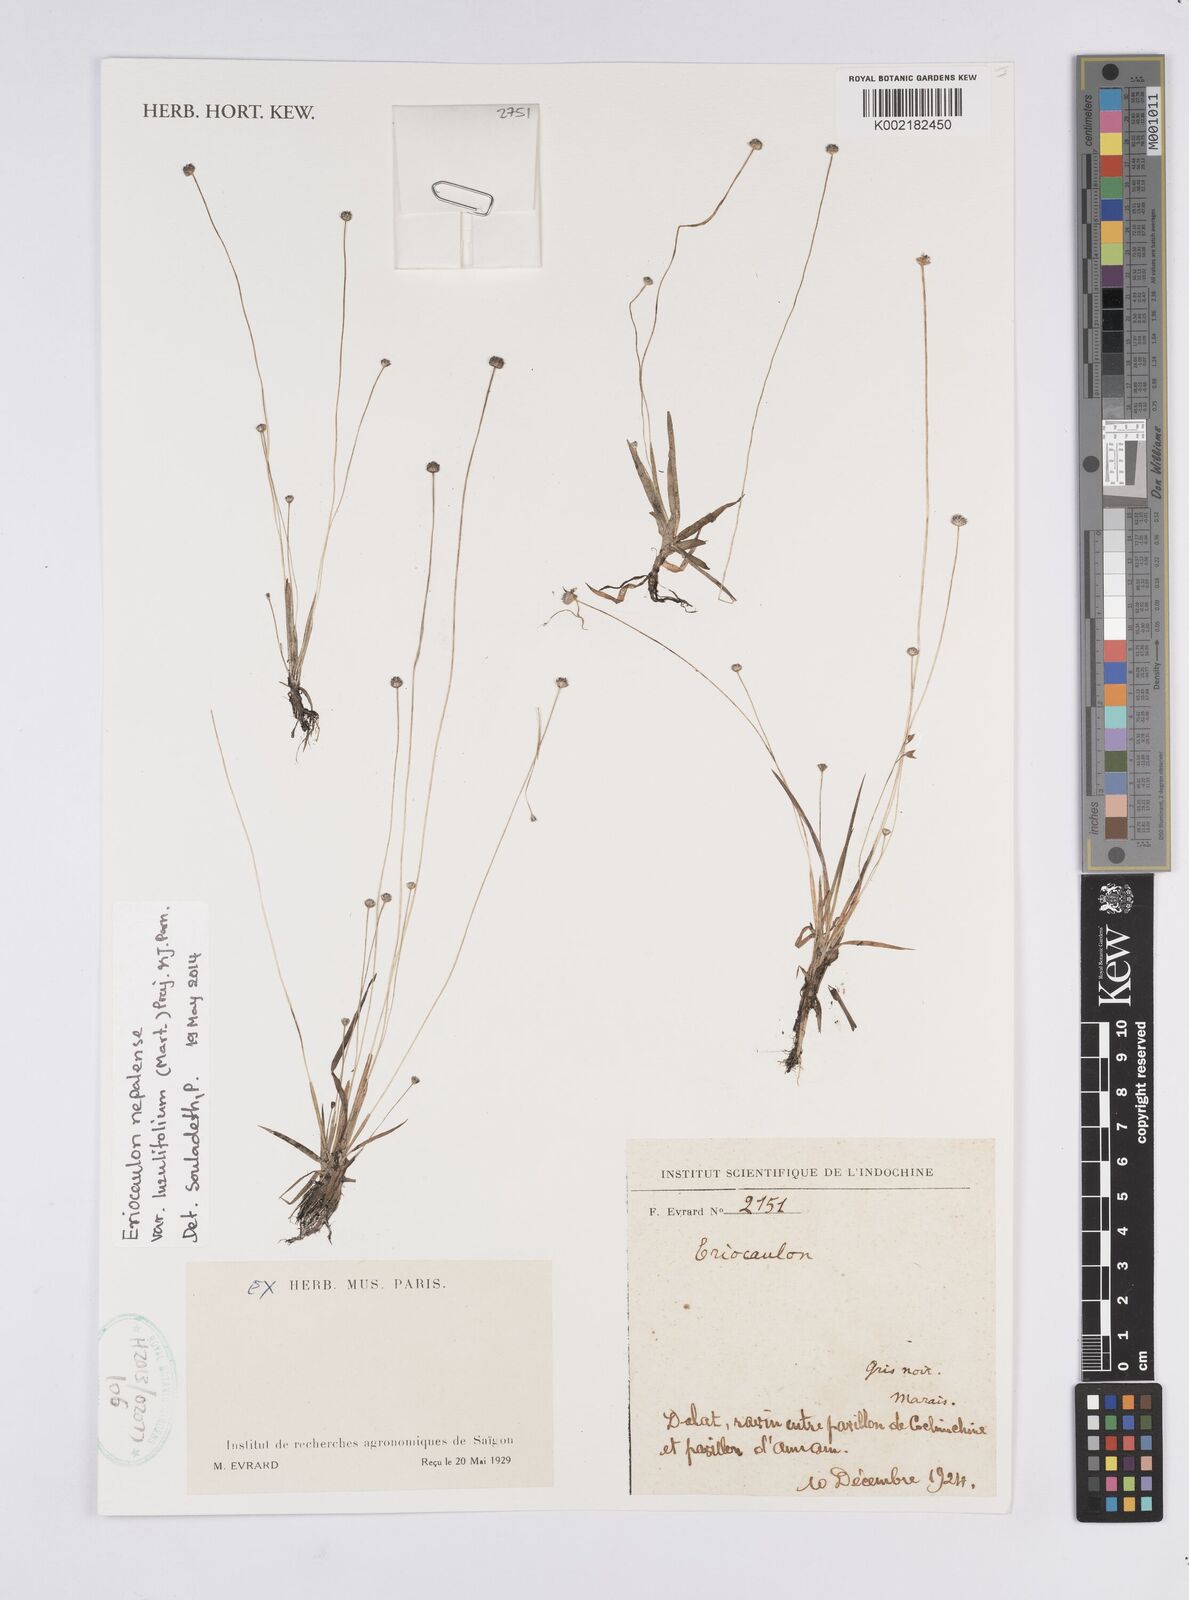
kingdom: Plantae
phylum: Tracheophyta
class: Liliopsida
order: Poales
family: Eriocaulaceae
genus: Eriocaulon
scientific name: Eriocaulon nepalense
